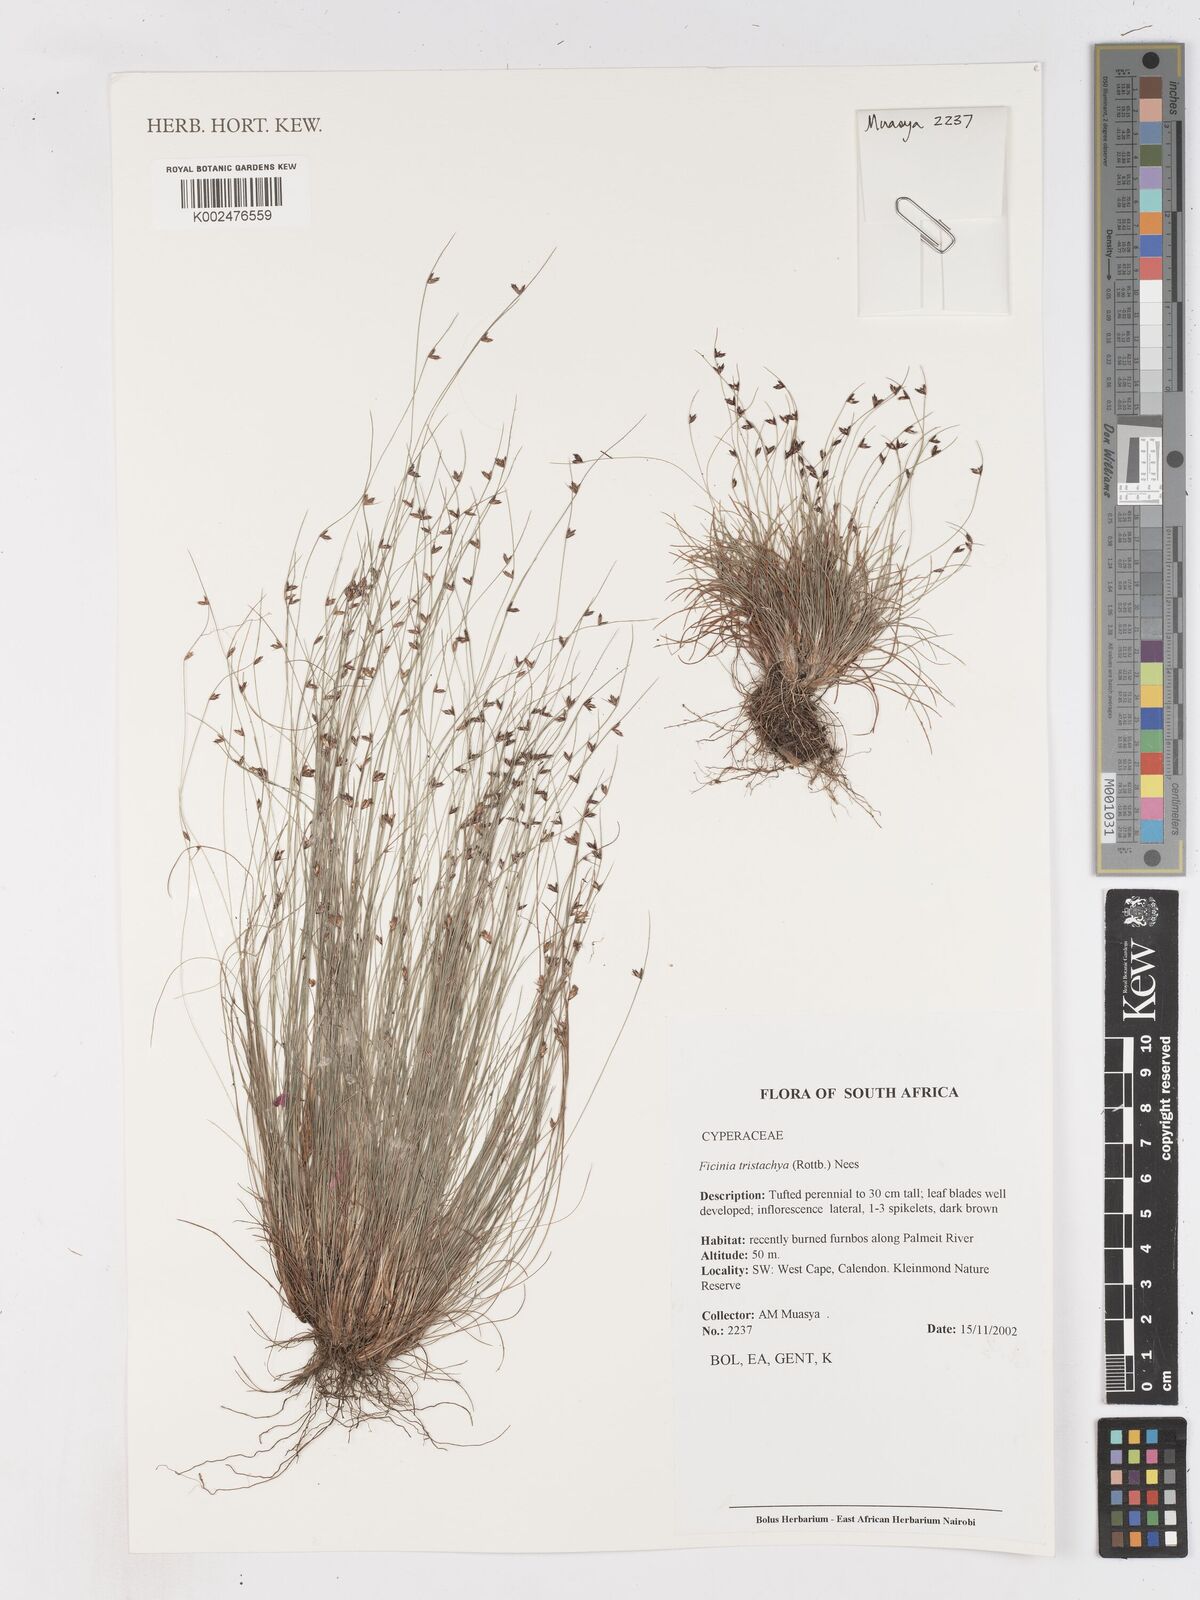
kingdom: Plantae
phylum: Tracheophyta
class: Liliopsida
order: Poales
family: Cyperaceae
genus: Ficinia
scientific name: Ficinia
